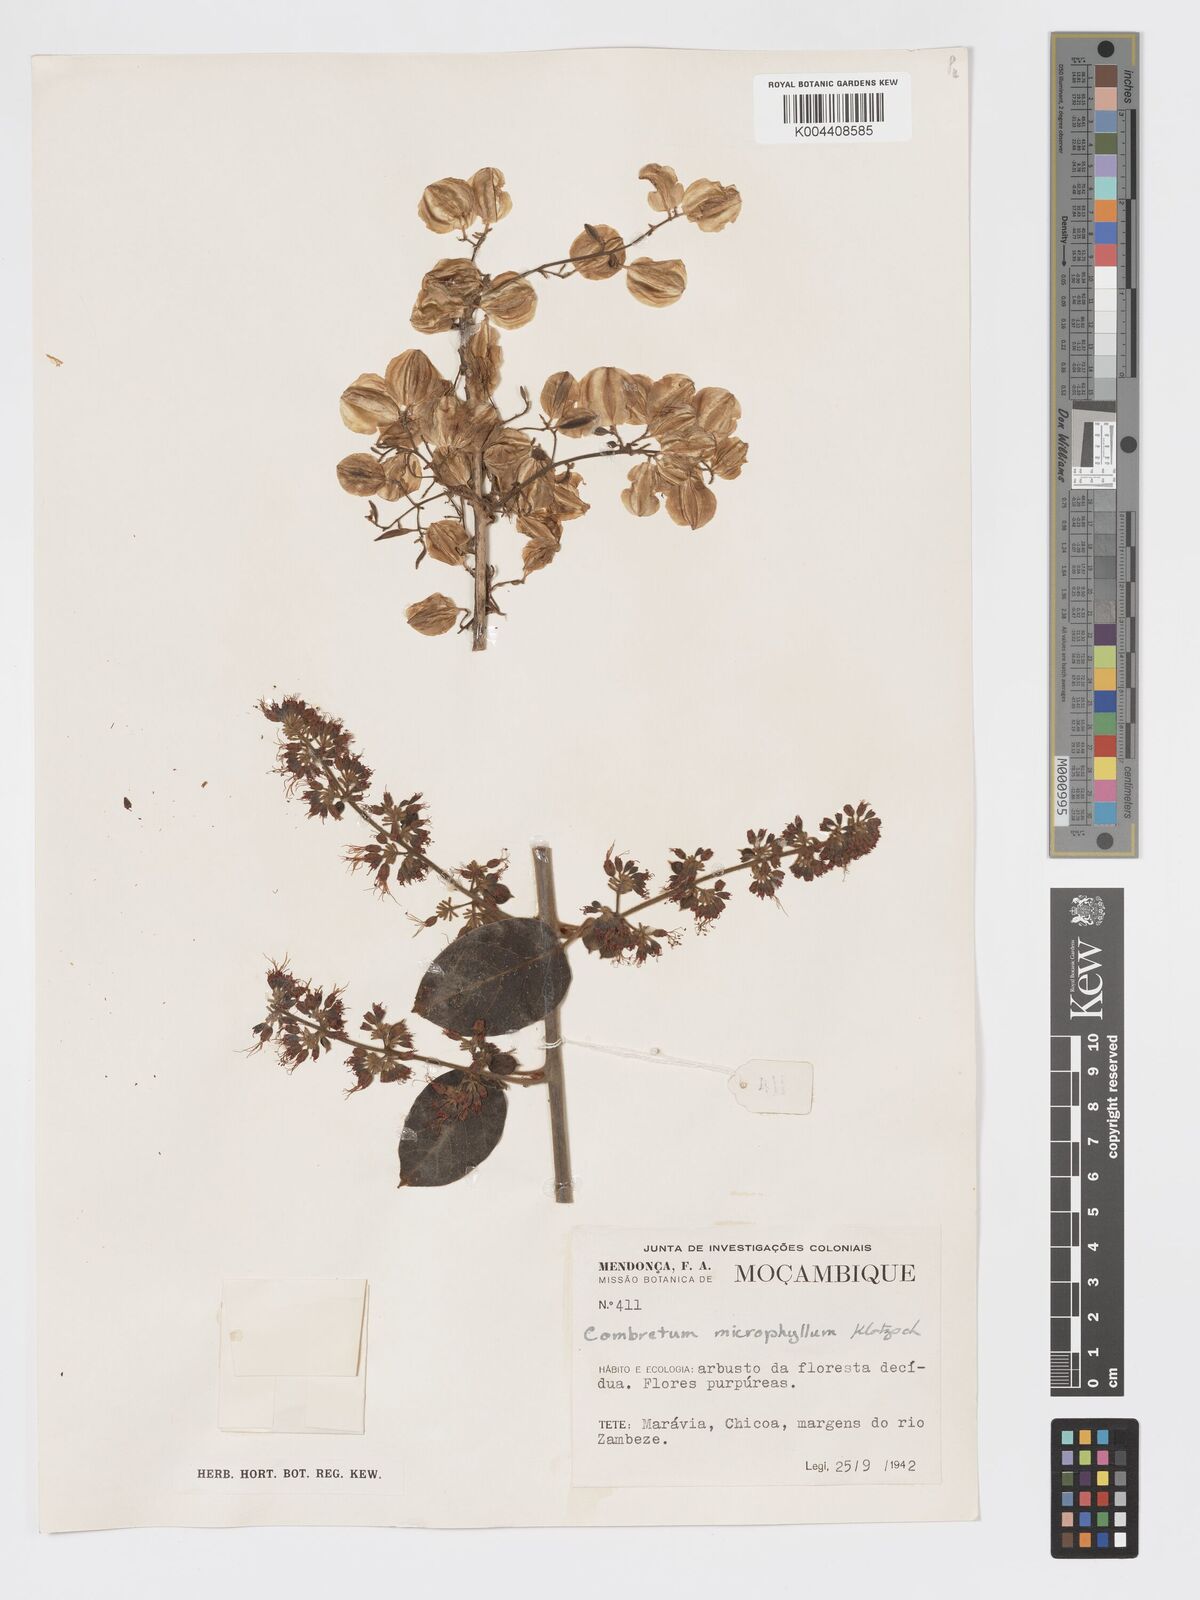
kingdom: Plantae
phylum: Tracheophyta
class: Magnoliopsida
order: Myrtales
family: Combretaceae
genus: Combretum
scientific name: Combretum microphyllum
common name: Burningbush
